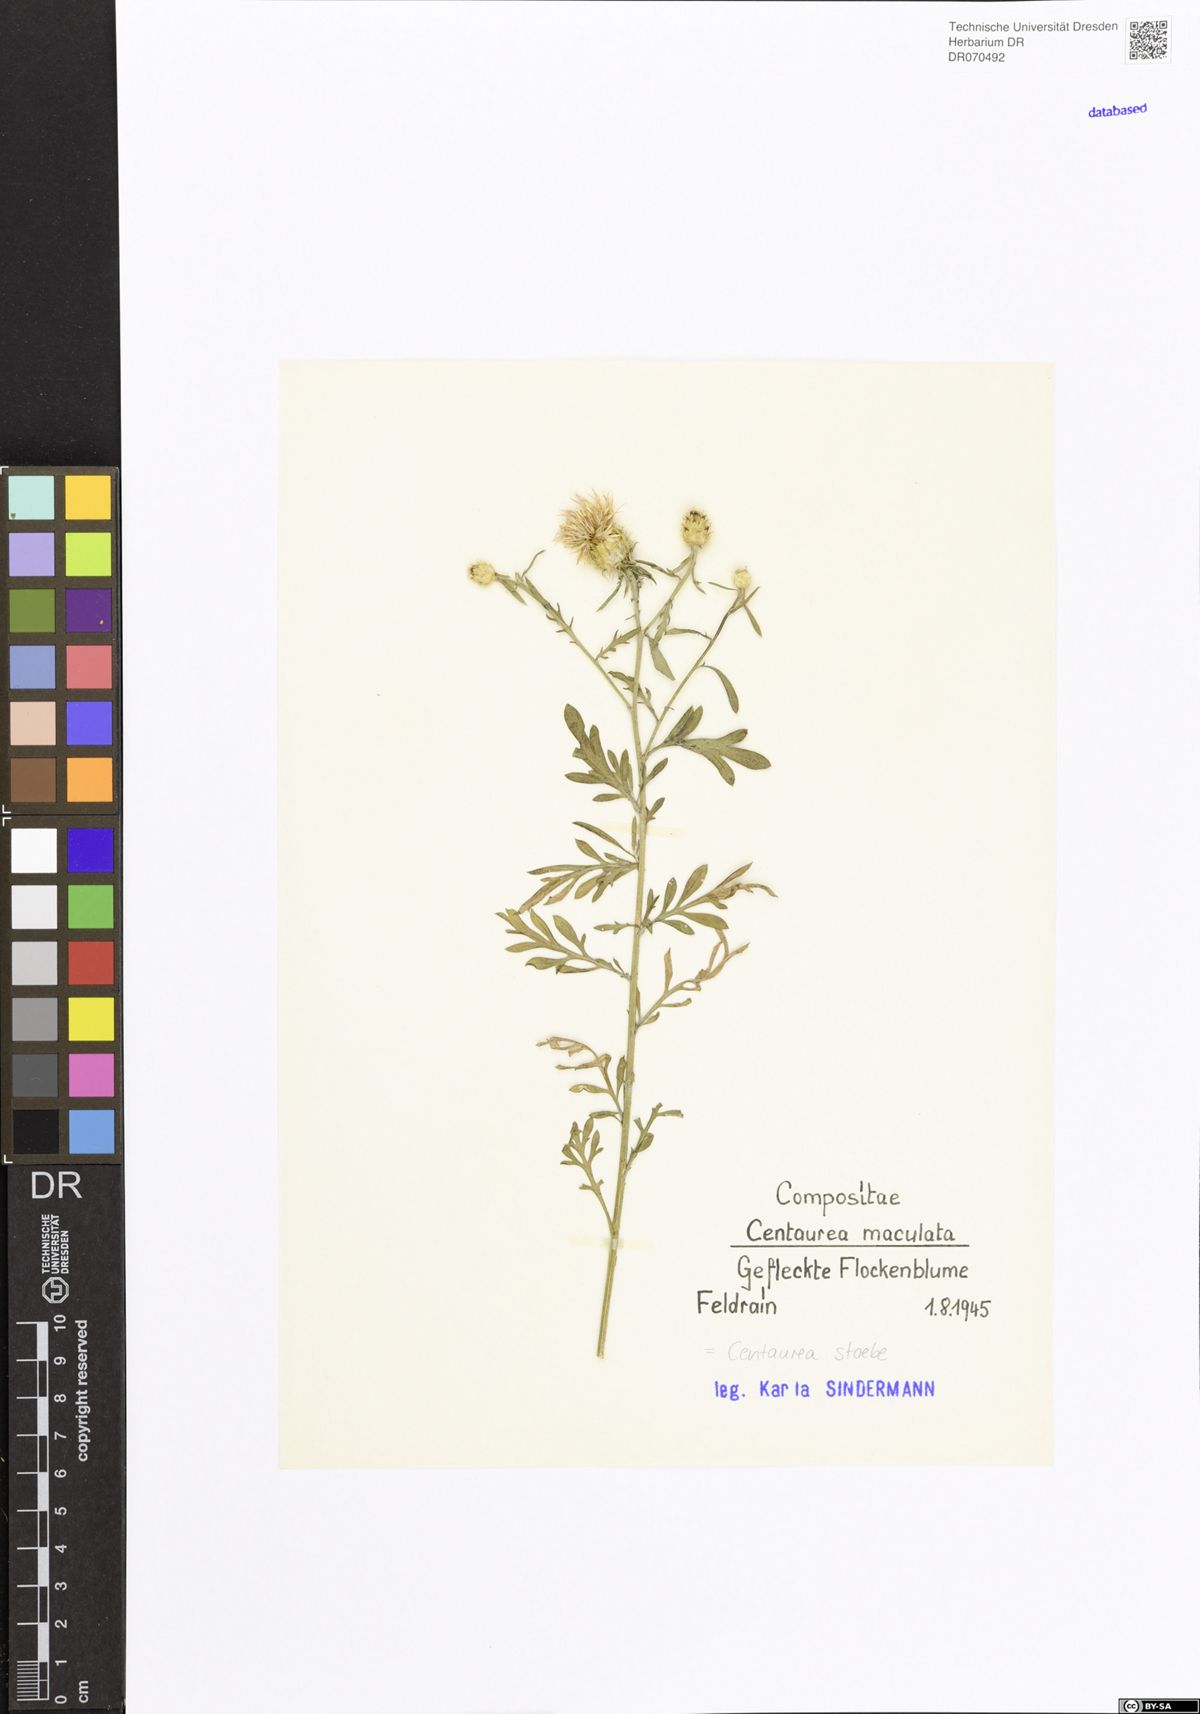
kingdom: Plantae
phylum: Tracheophyta
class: Magnoliopsida
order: Asterales
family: Asteraceae
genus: Centaurea
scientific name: Centaurea stoebe
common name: Spotted knapweed
